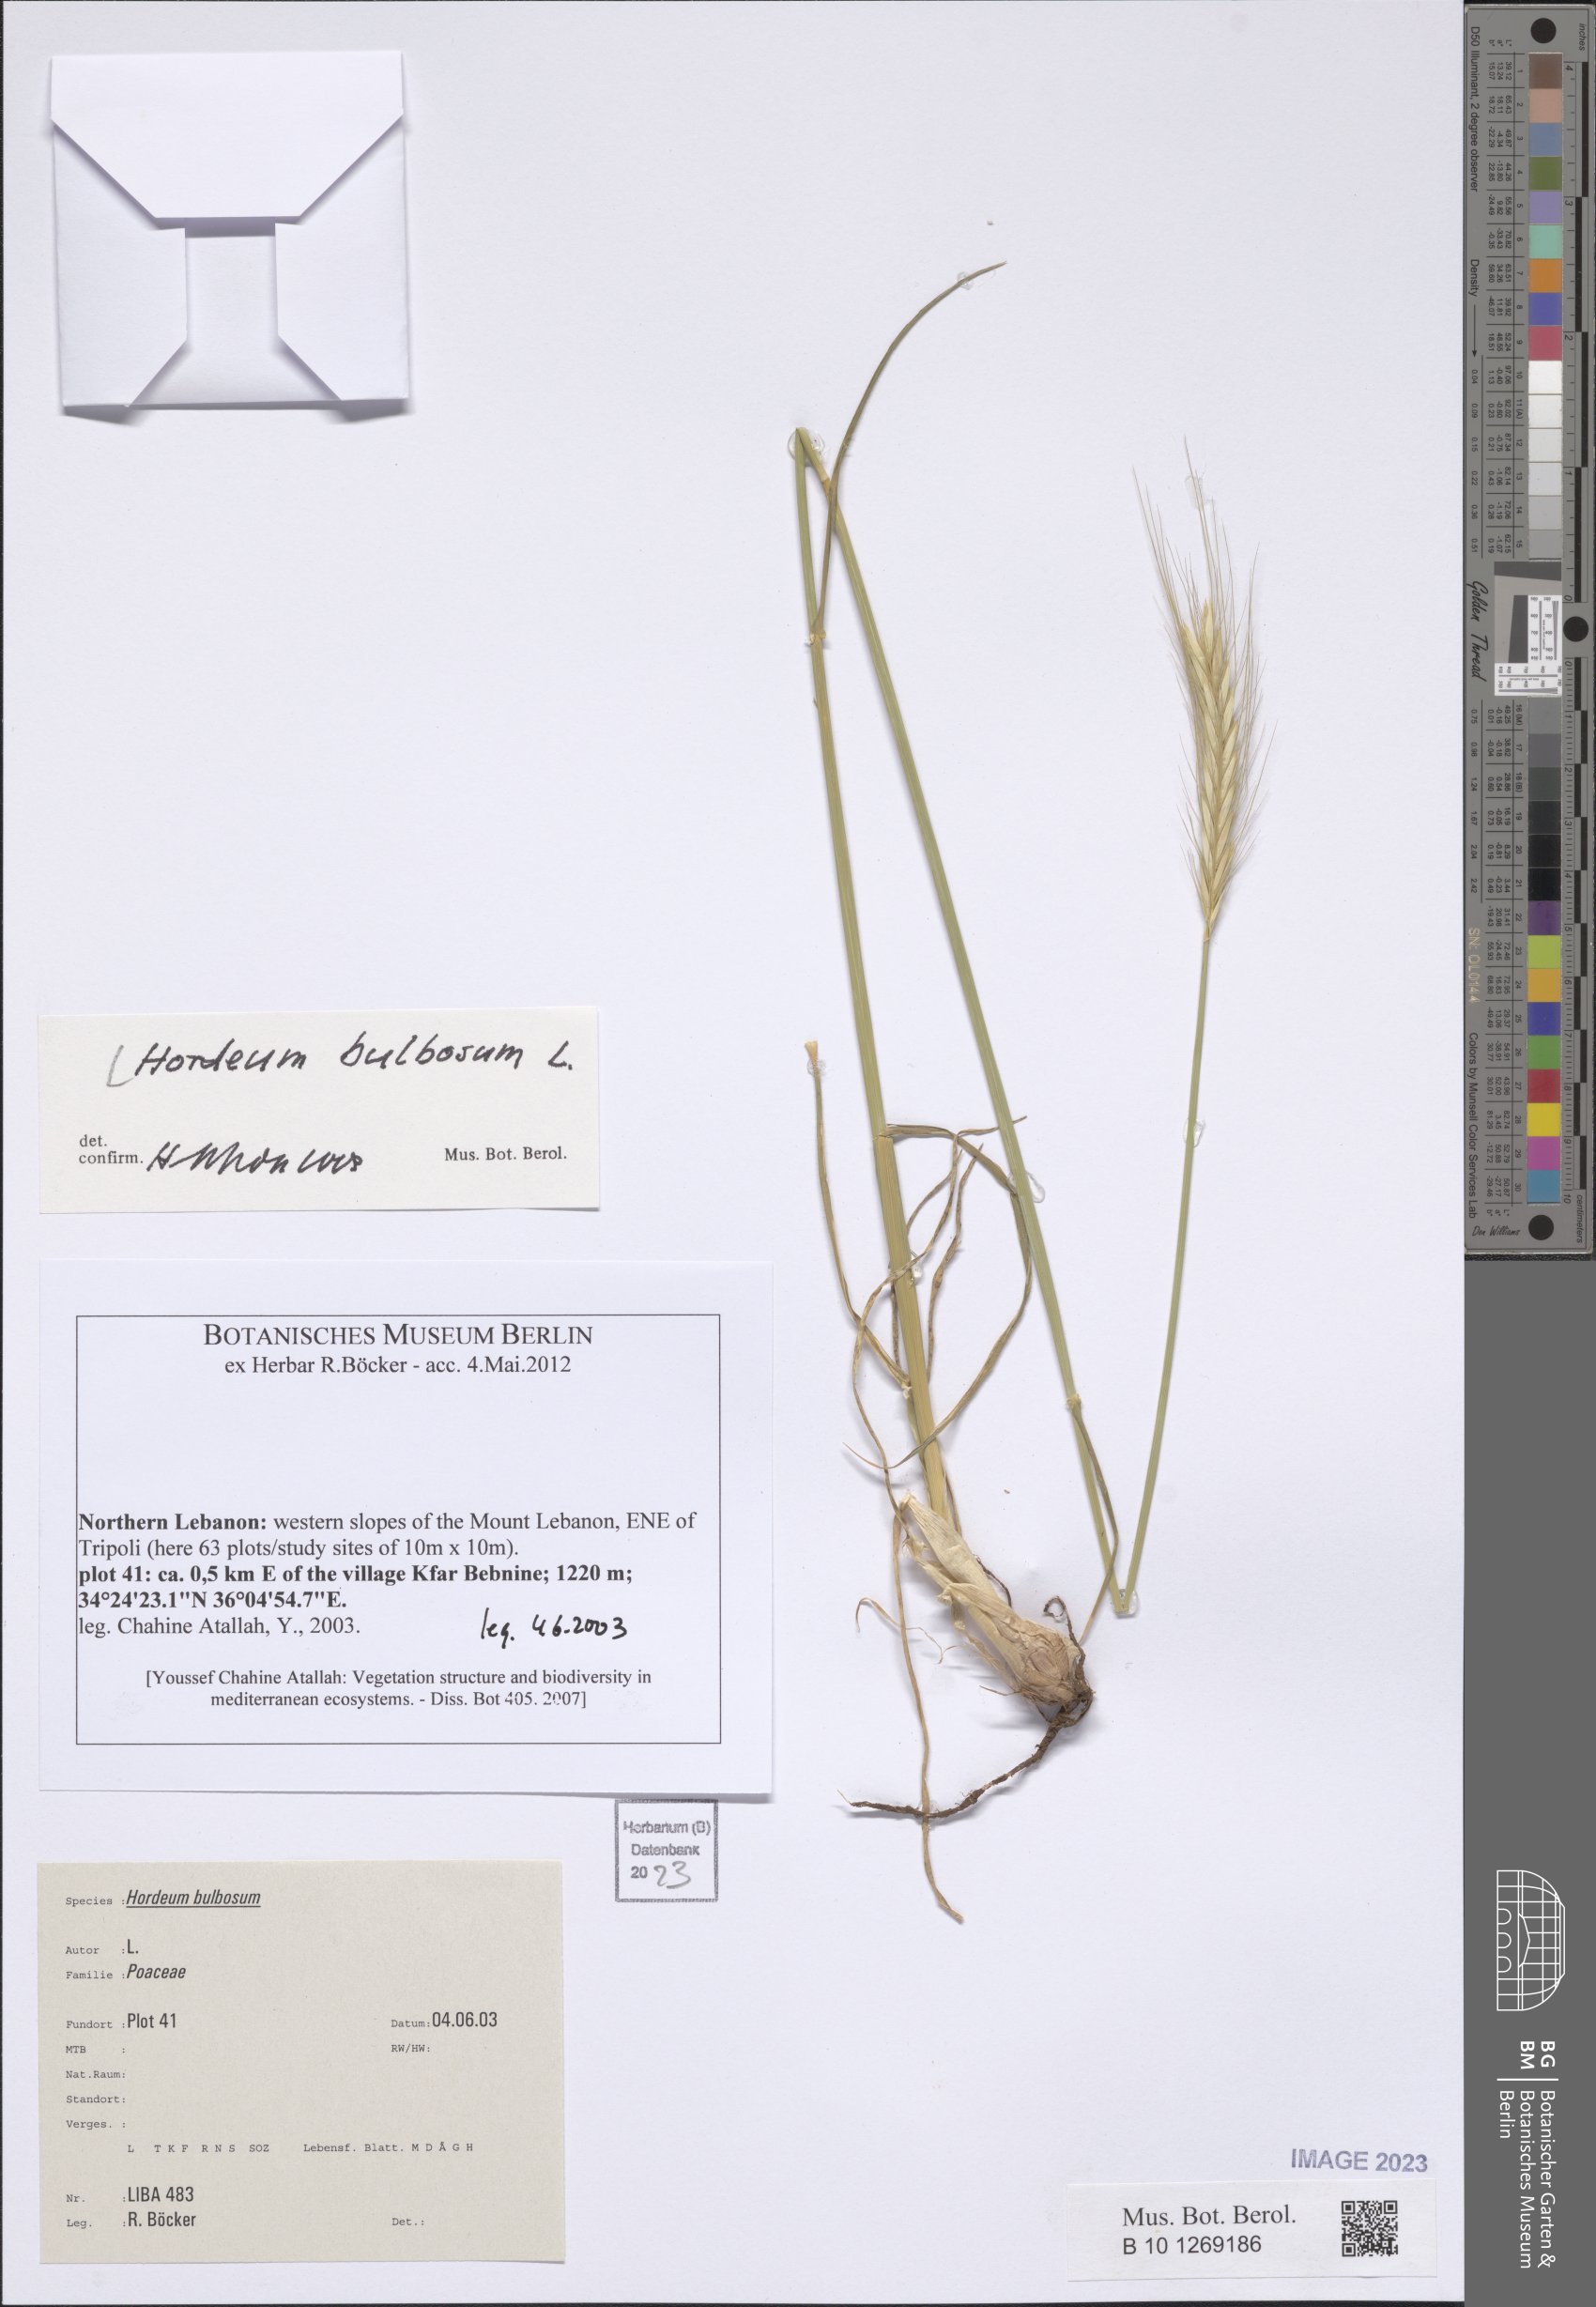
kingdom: Plantae
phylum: Tracheophyta
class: Liliopsida
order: Poales
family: Poaceae
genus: Hordeum
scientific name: Hordeum bulbosum
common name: Bulbous barley
